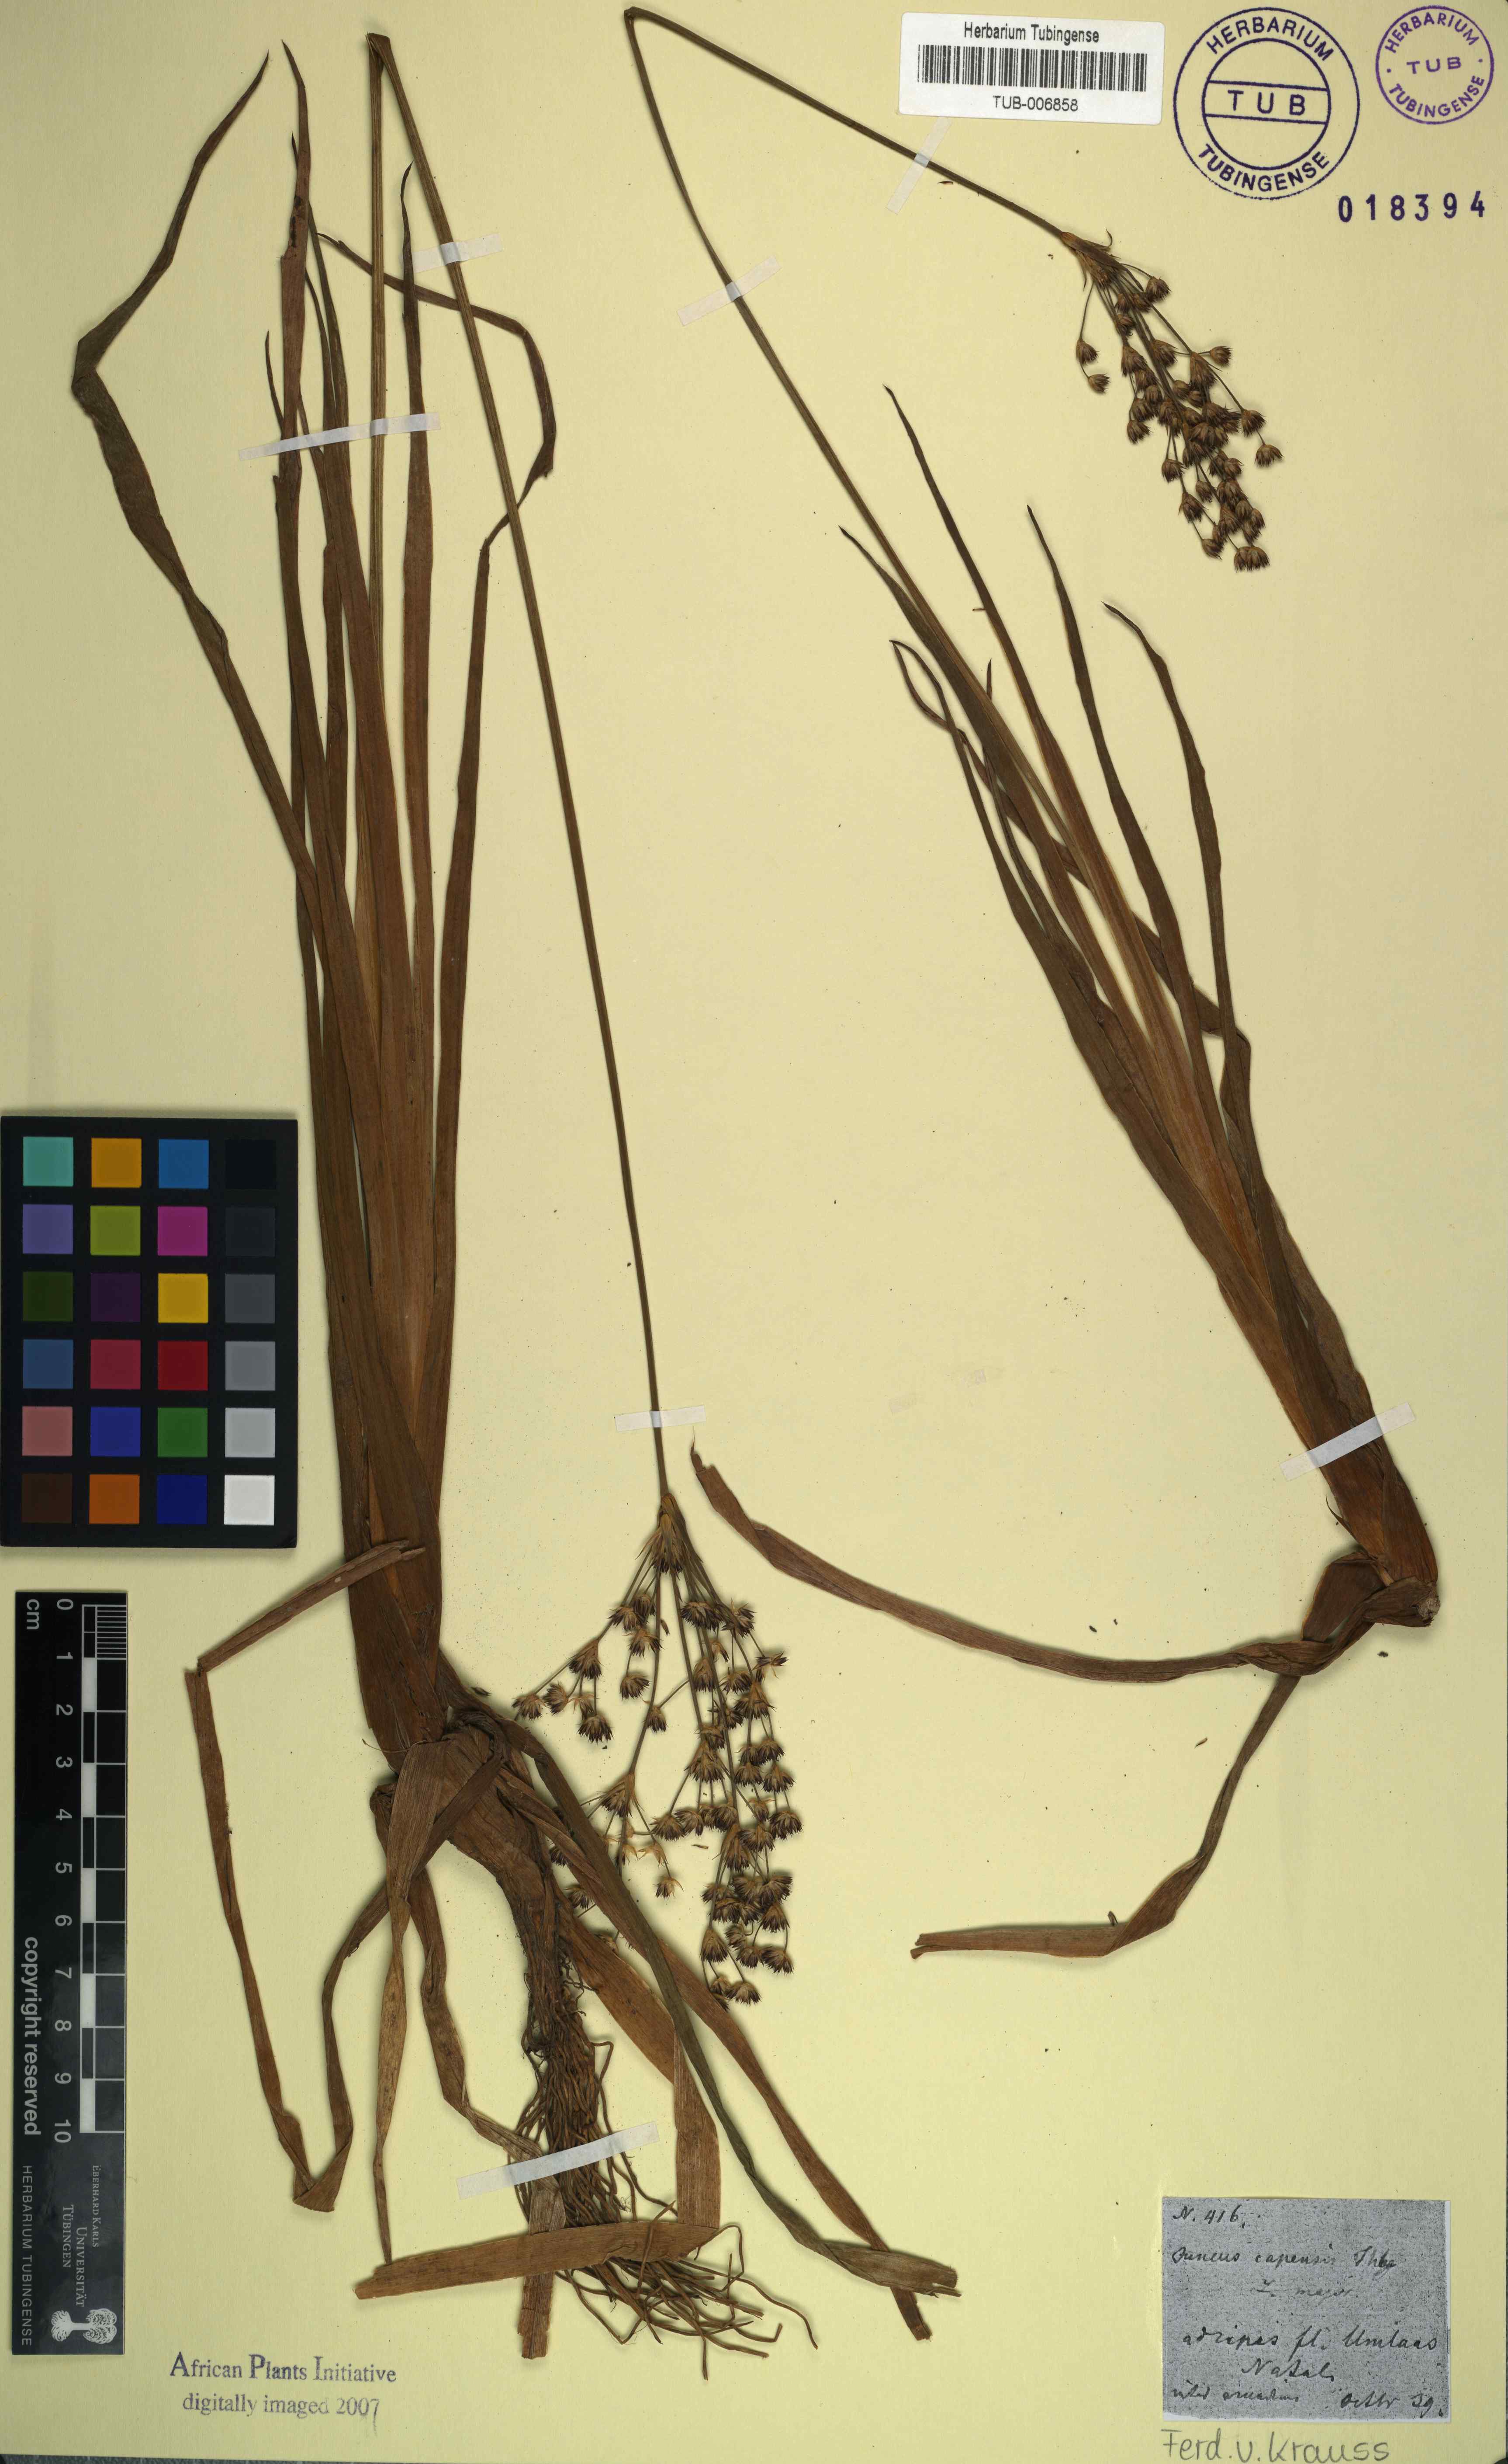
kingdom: Plantae
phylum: Tracheophyta
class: Liliopsida
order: Poales
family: Juncaceae
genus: Juncus
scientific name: Juncus capensis
